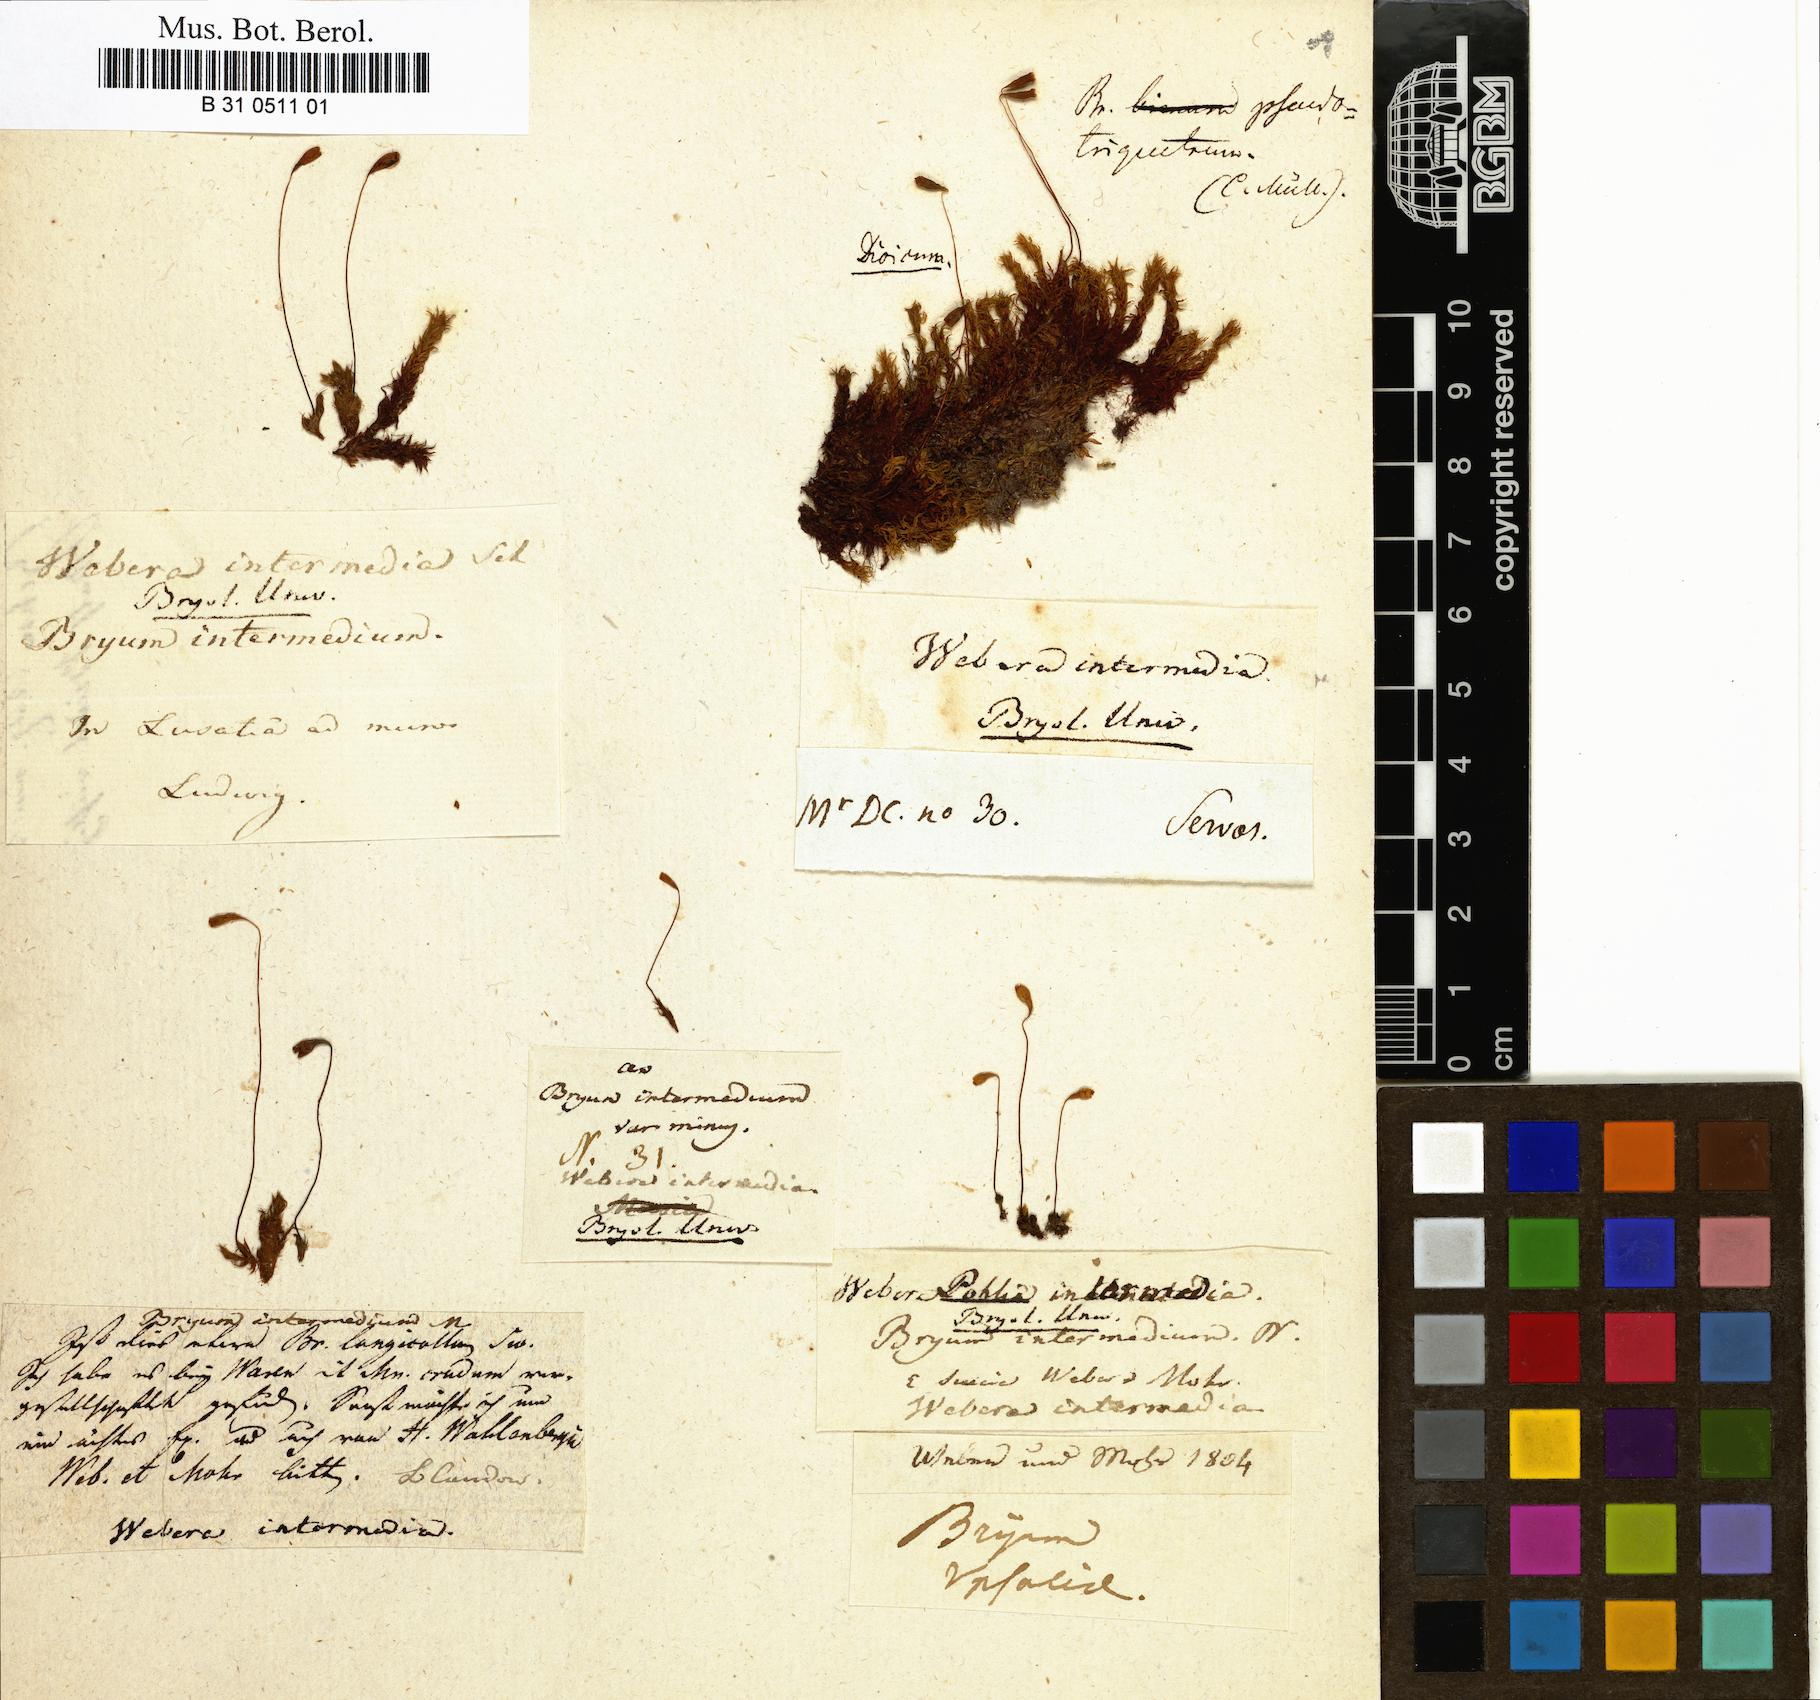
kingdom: Plantae
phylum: Bryophyta
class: Bryopsida
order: Bryales
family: Bryaceae
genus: Ptychostomum
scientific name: Ptychostomum intermedium
